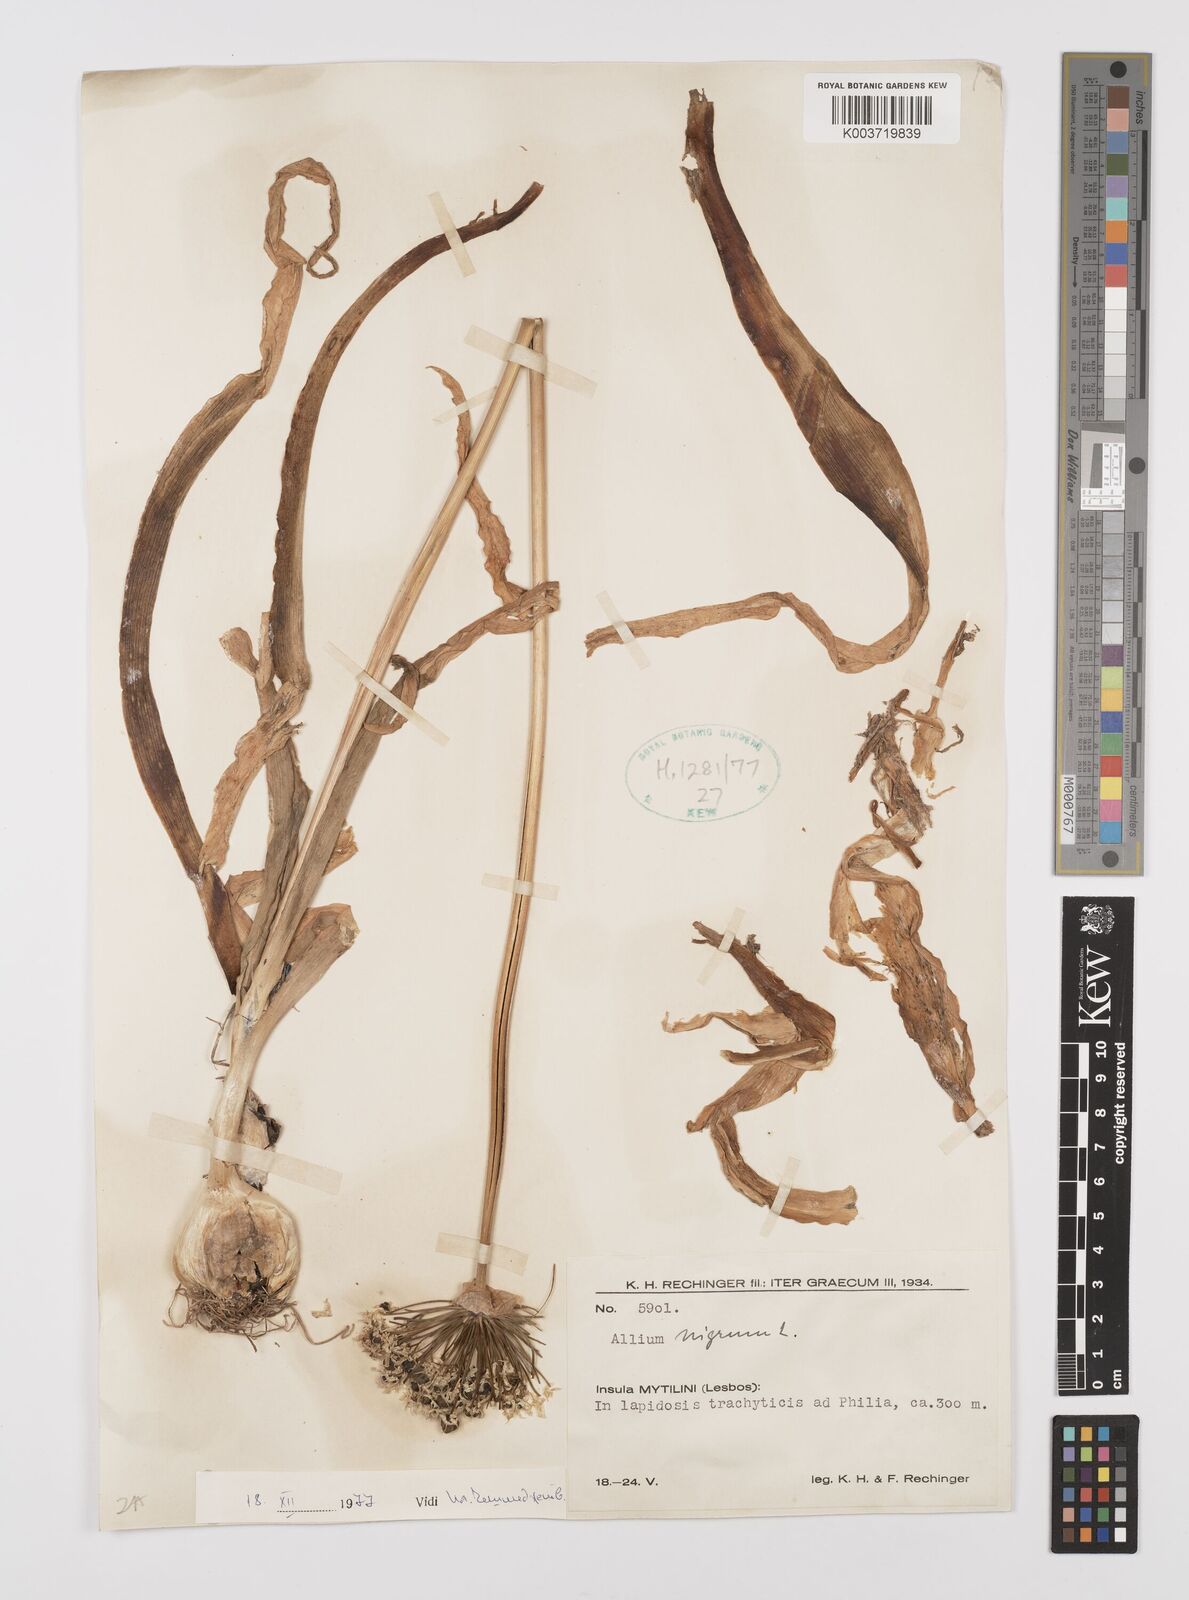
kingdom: Plantae
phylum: Tracheophyta
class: Liliopsida
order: Asparagales
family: Amaryllidaceae
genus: Allium
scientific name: Allium nigrum
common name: Black garlic
